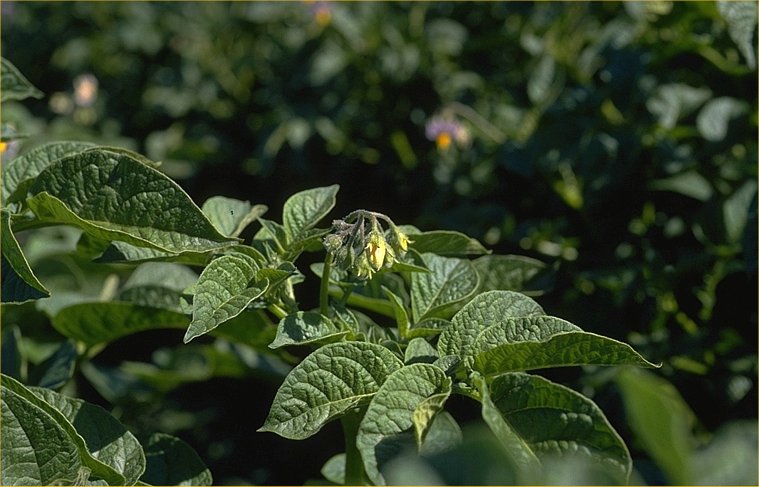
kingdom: Plantae
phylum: Tracheophyta
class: Magnoliopsida
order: Solanales
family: Solanaceae
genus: Solanum
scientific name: Solanum tuberosum
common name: Potato
